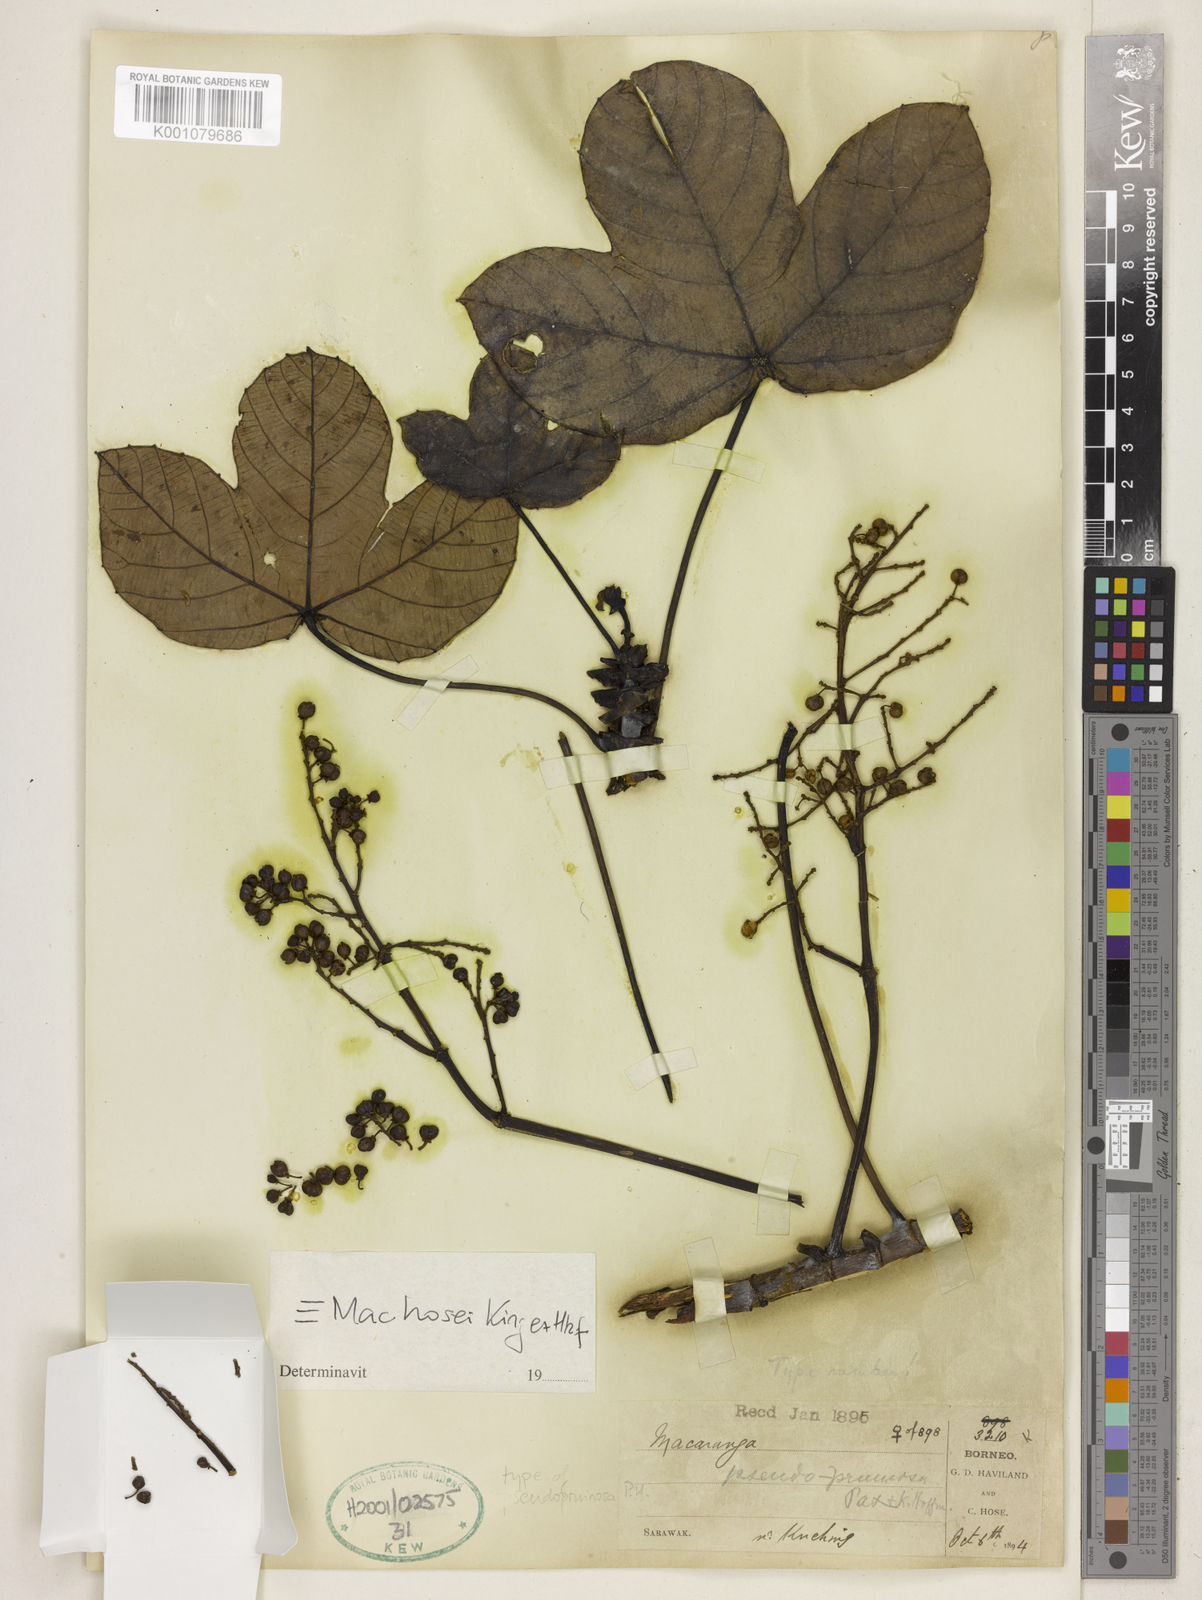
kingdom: Plantae
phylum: Tracheophyta
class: Magnoliopsida
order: Malpighiales
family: Euphorbiaceae
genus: Macaranga
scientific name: Macaranga hosei
